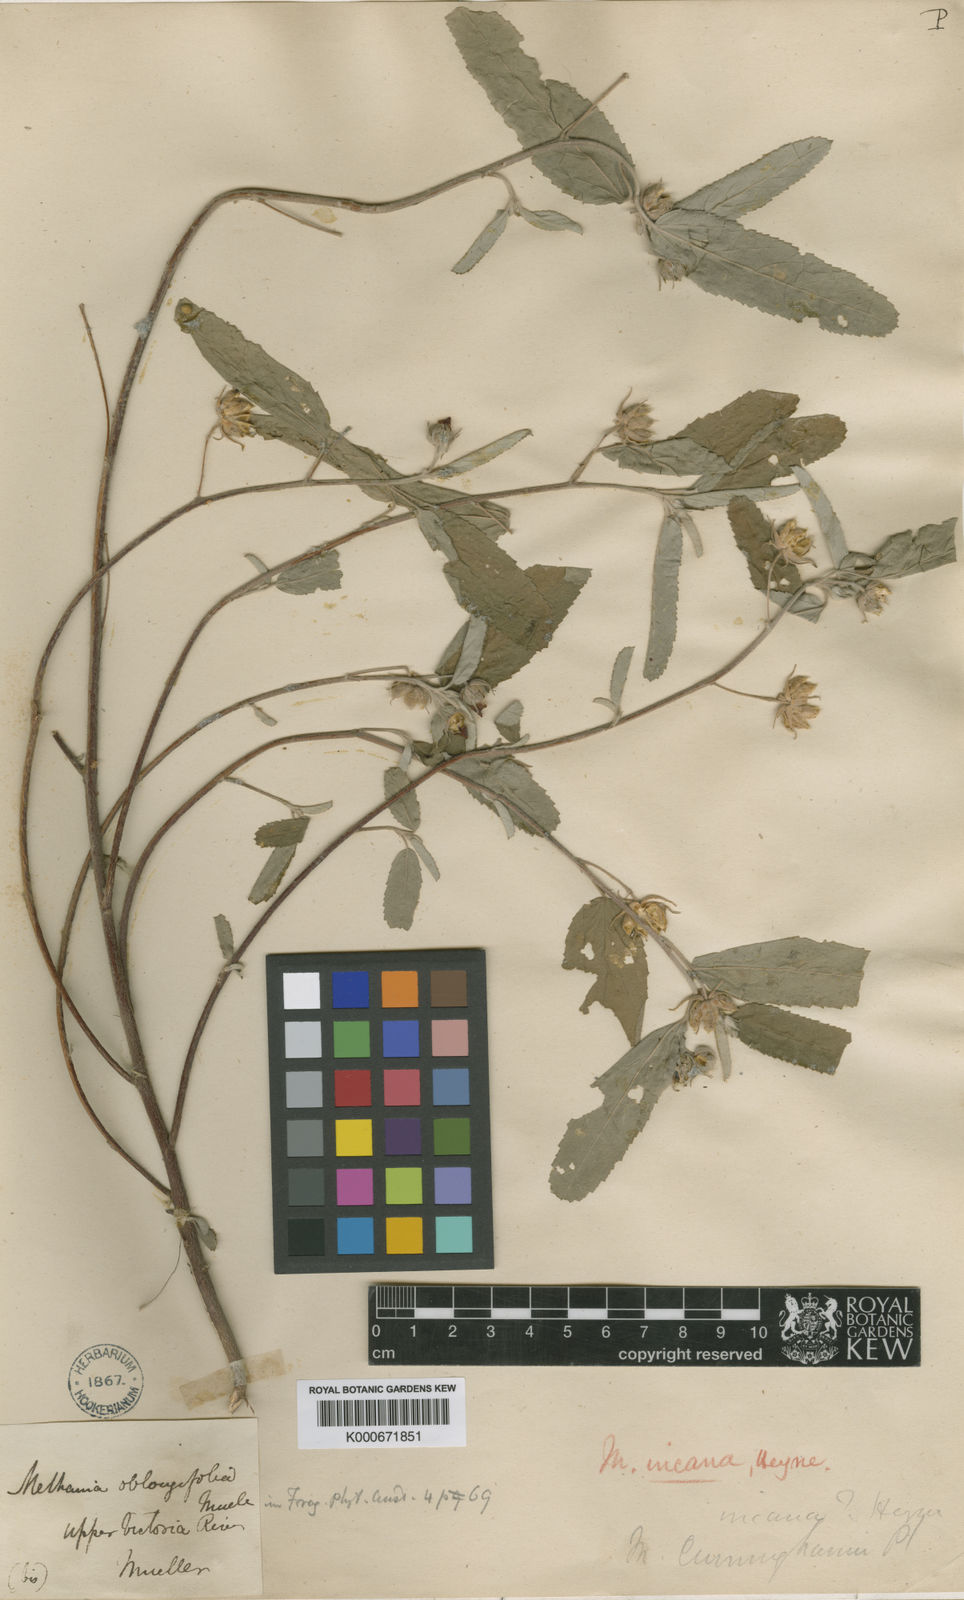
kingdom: Plantae
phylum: Tracheophyta
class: Magnoliopsida
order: Malvales
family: Malvaceae
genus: Melhania
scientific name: Melhania oblongifolia
